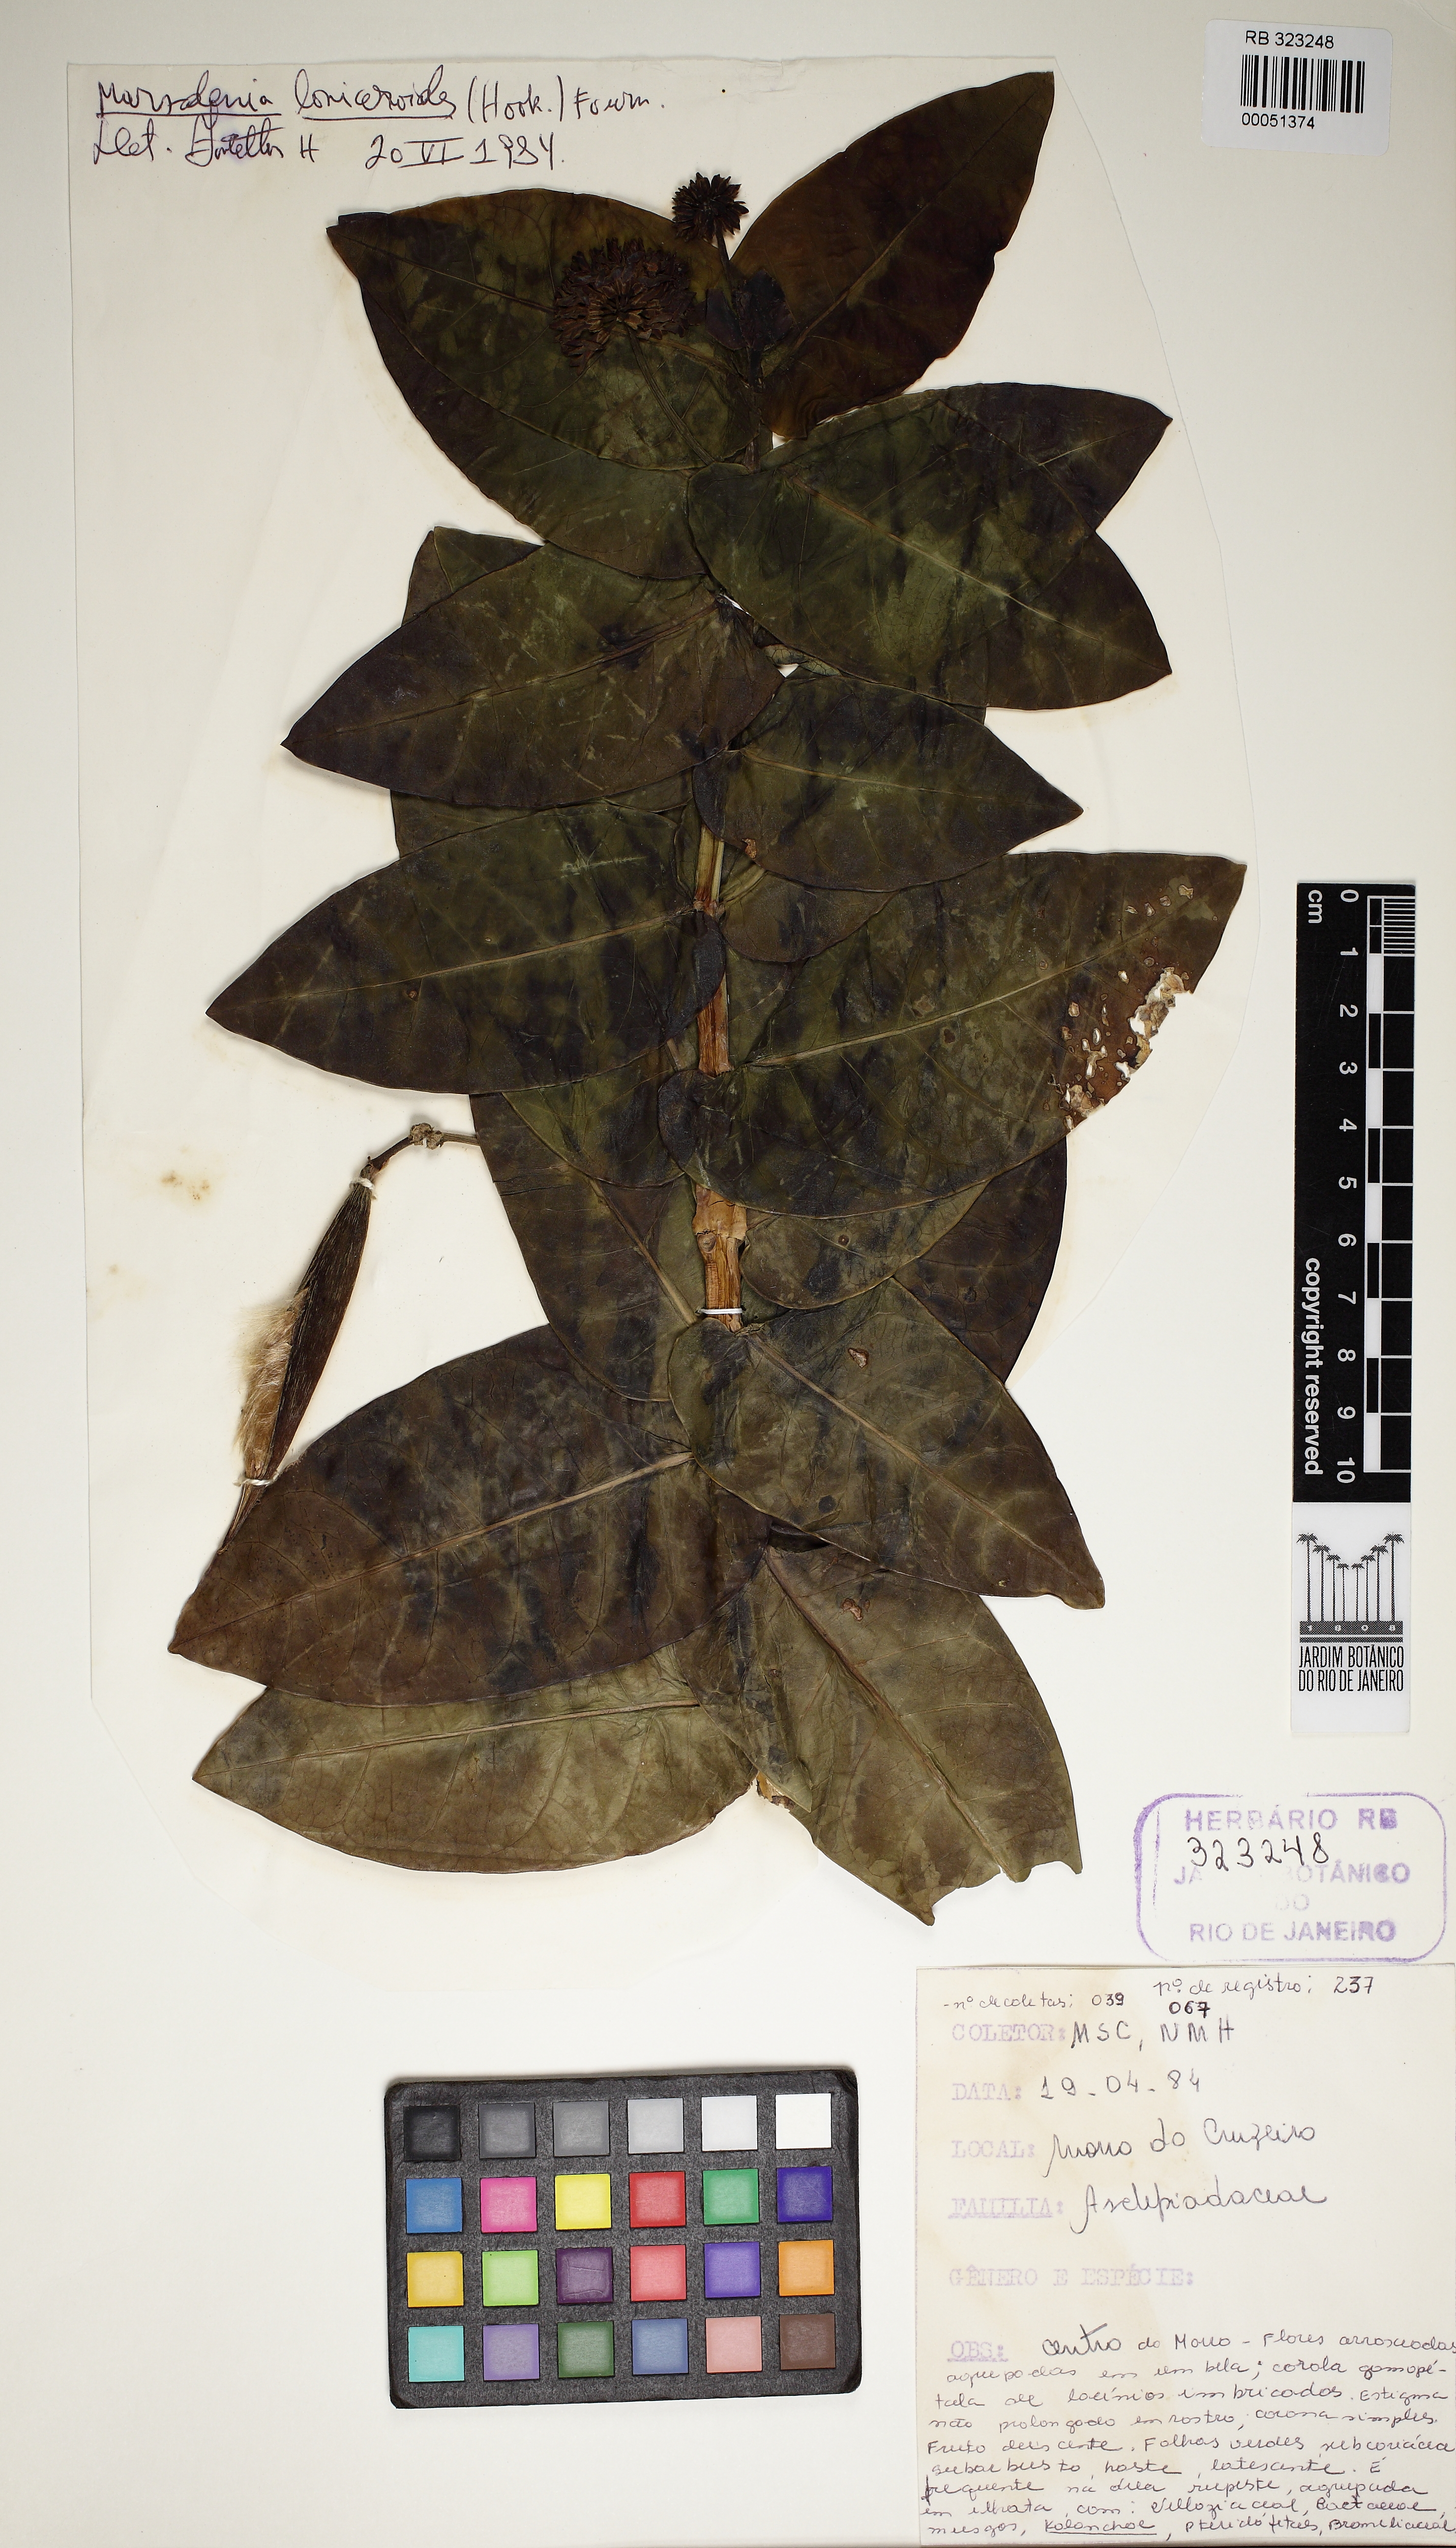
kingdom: Plantae
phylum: Tracheophyta
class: Magnoliopsida
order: Gentianales
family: Apocynaceae
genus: Ruehssia
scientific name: Ruehssia loniceroides
